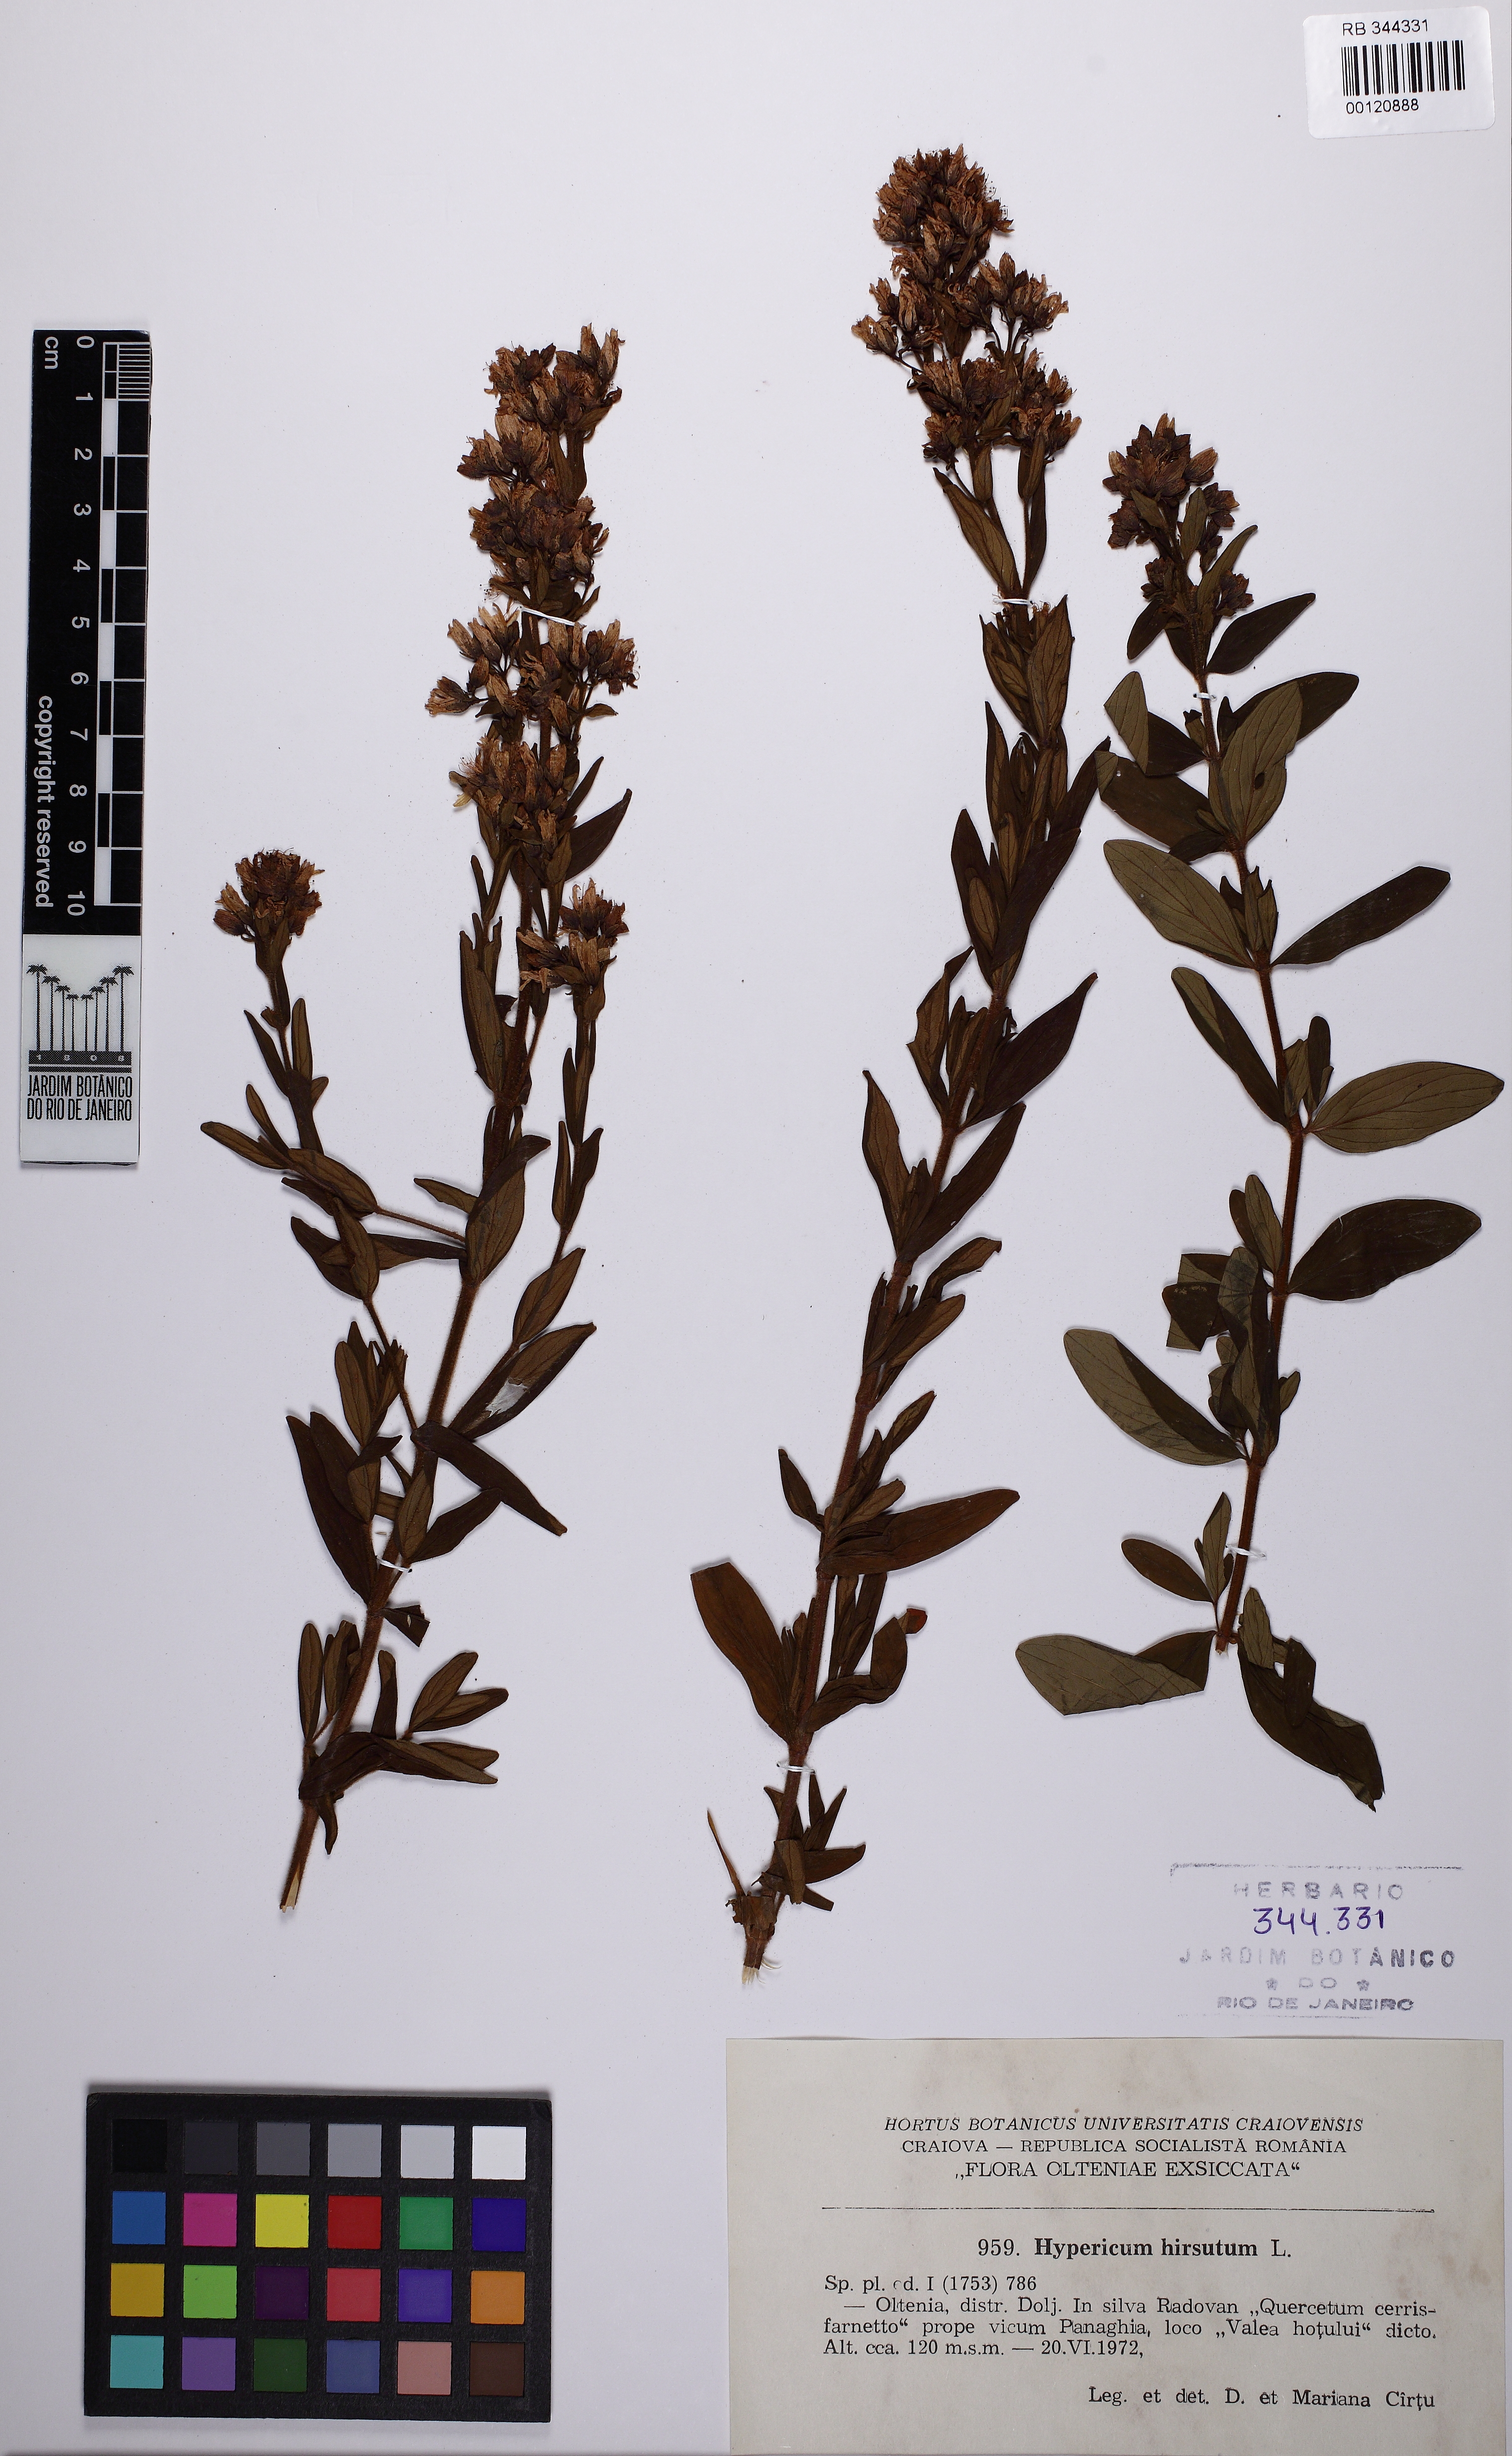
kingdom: Plantae
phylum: Tracheophyta
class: Magnoliopsida
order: Malpighiales
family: Hypericaceae
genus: Hypericum
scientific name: Hypericum hircinum
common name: Stinking tutsan
